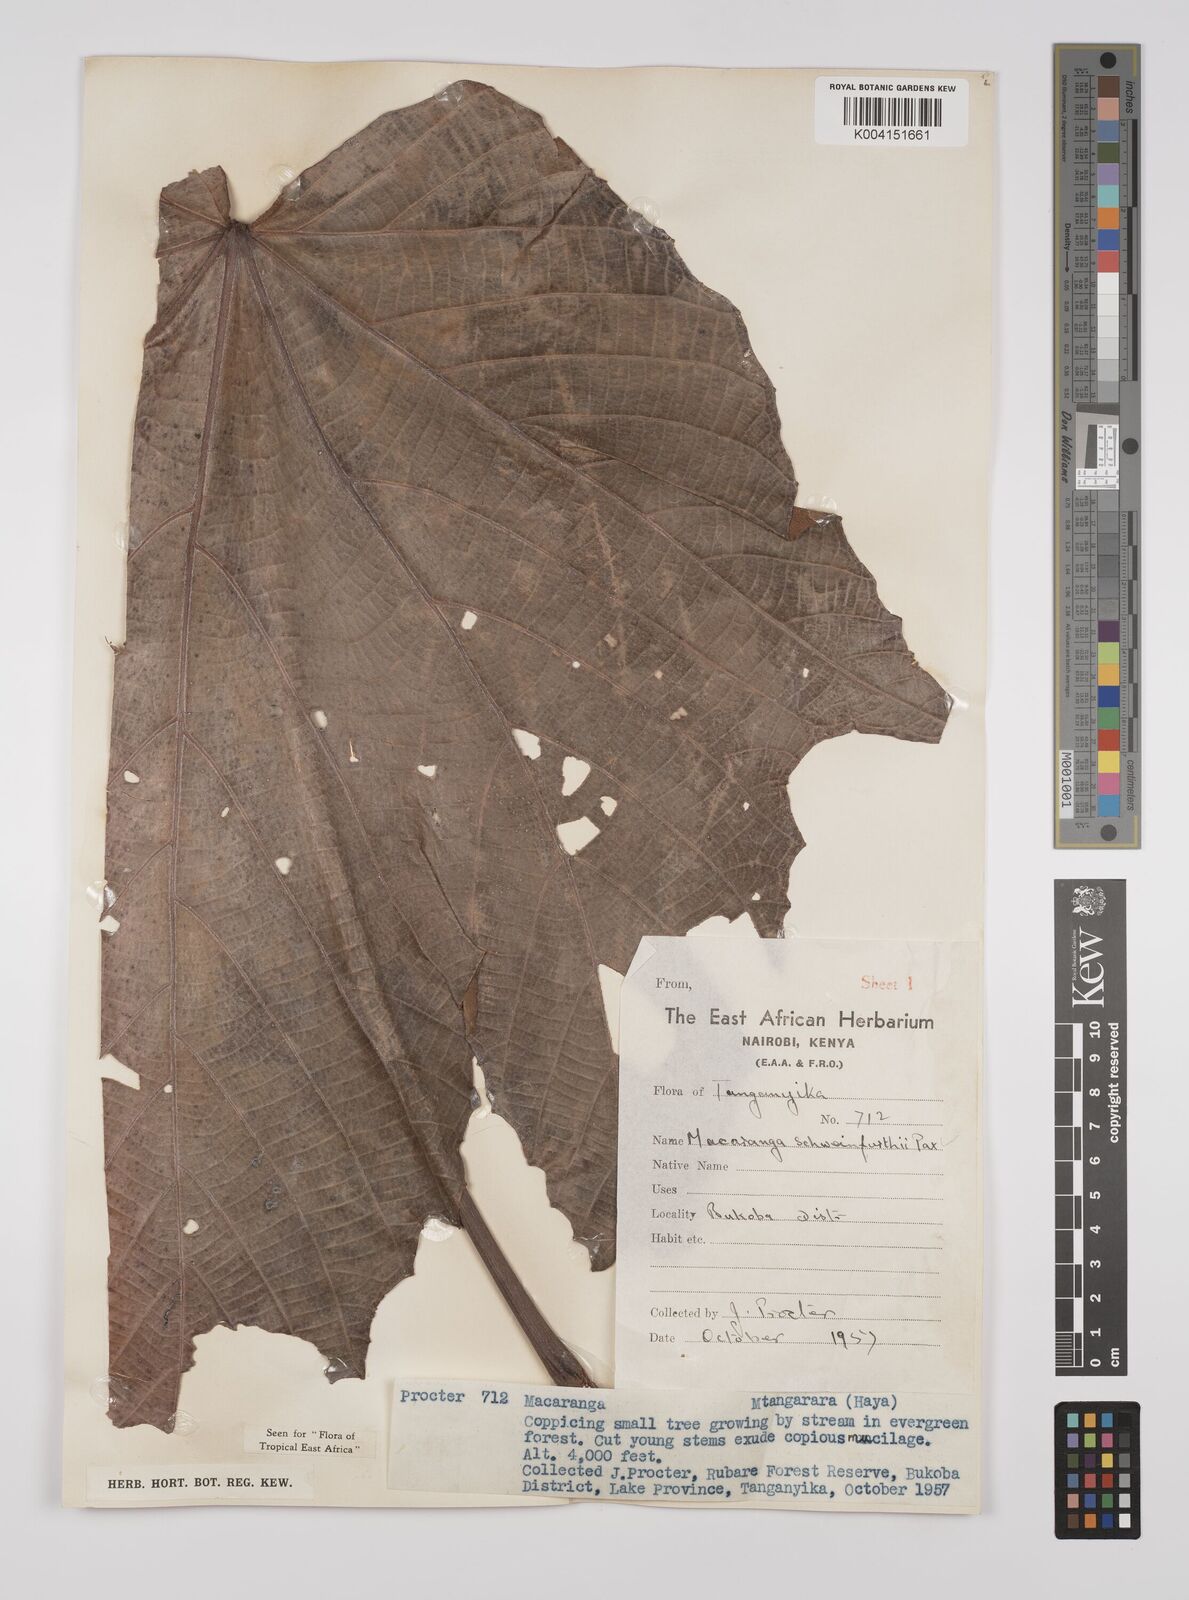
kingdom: Plantae
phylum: Tracheophyta
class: Magnoliopsida
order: Malpighiales
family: Euphorbiaceae
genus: Macaranga
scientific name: Macaranga schweinfurthii
